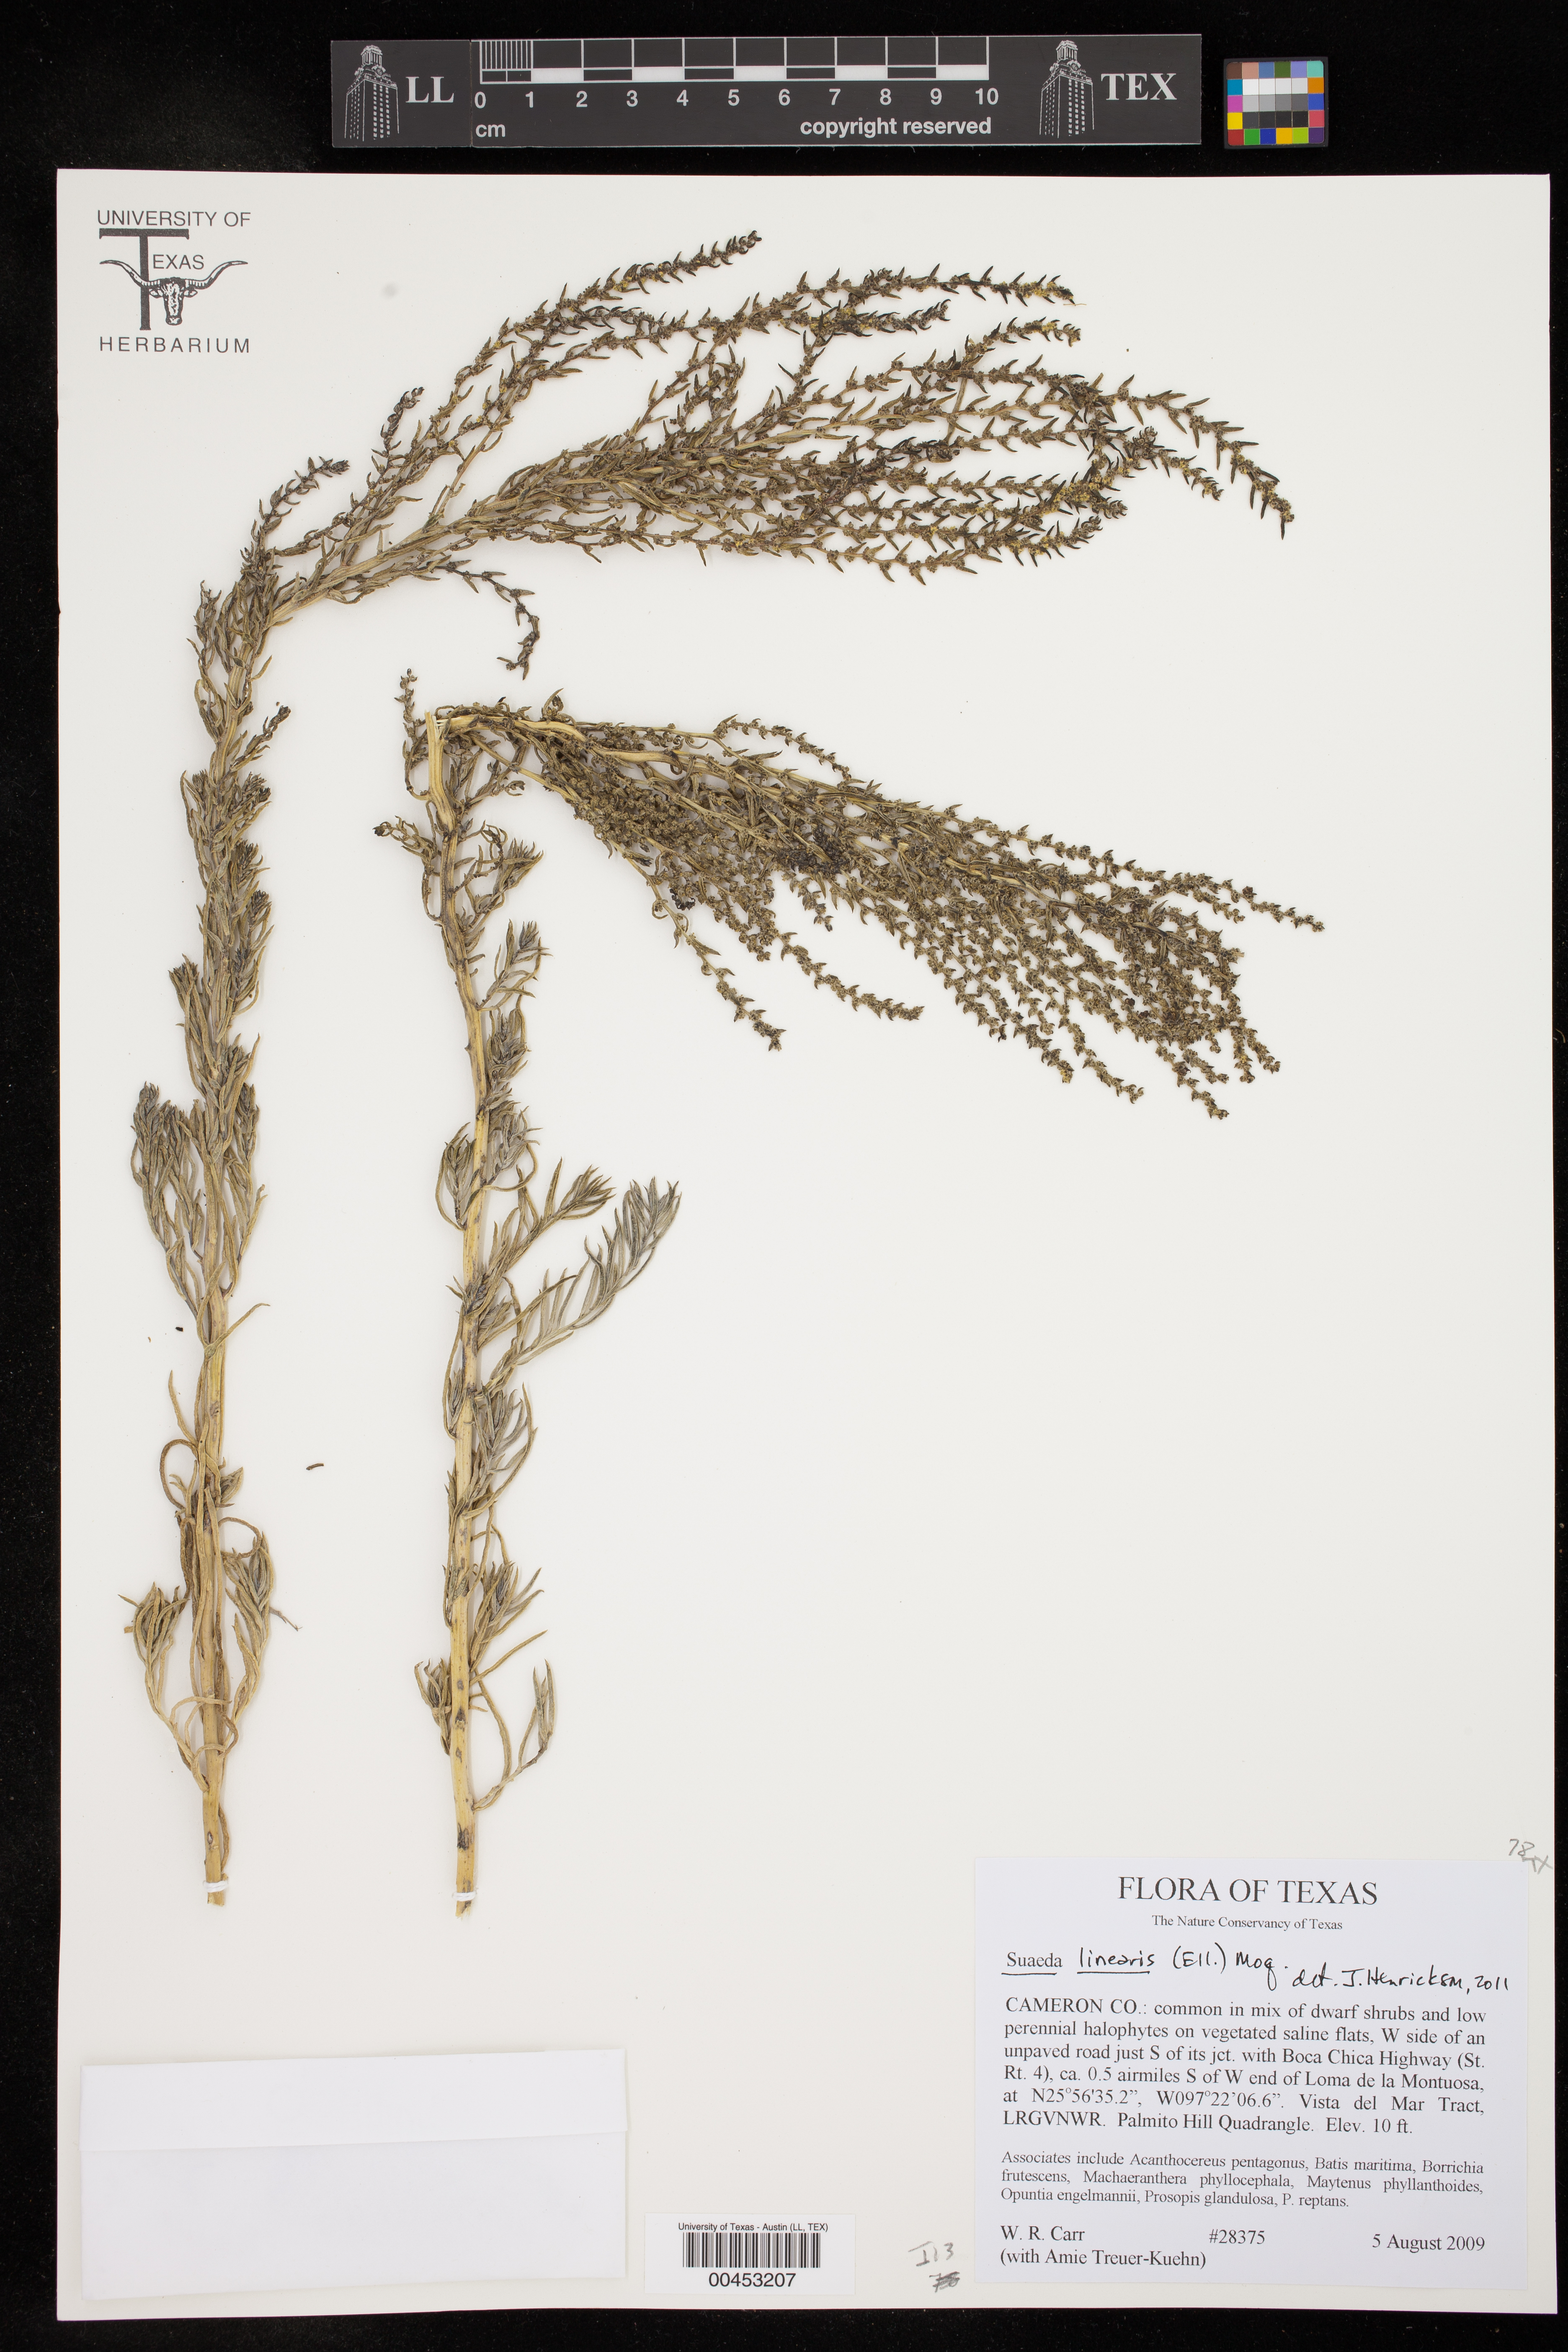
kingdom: Plantae
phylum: Tracheophyta
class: Magnoliopsida
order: Caryophyllales
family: Amaranthaceae
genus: Suaeda
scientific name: Suaeda linearis
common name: Annual seepweed
